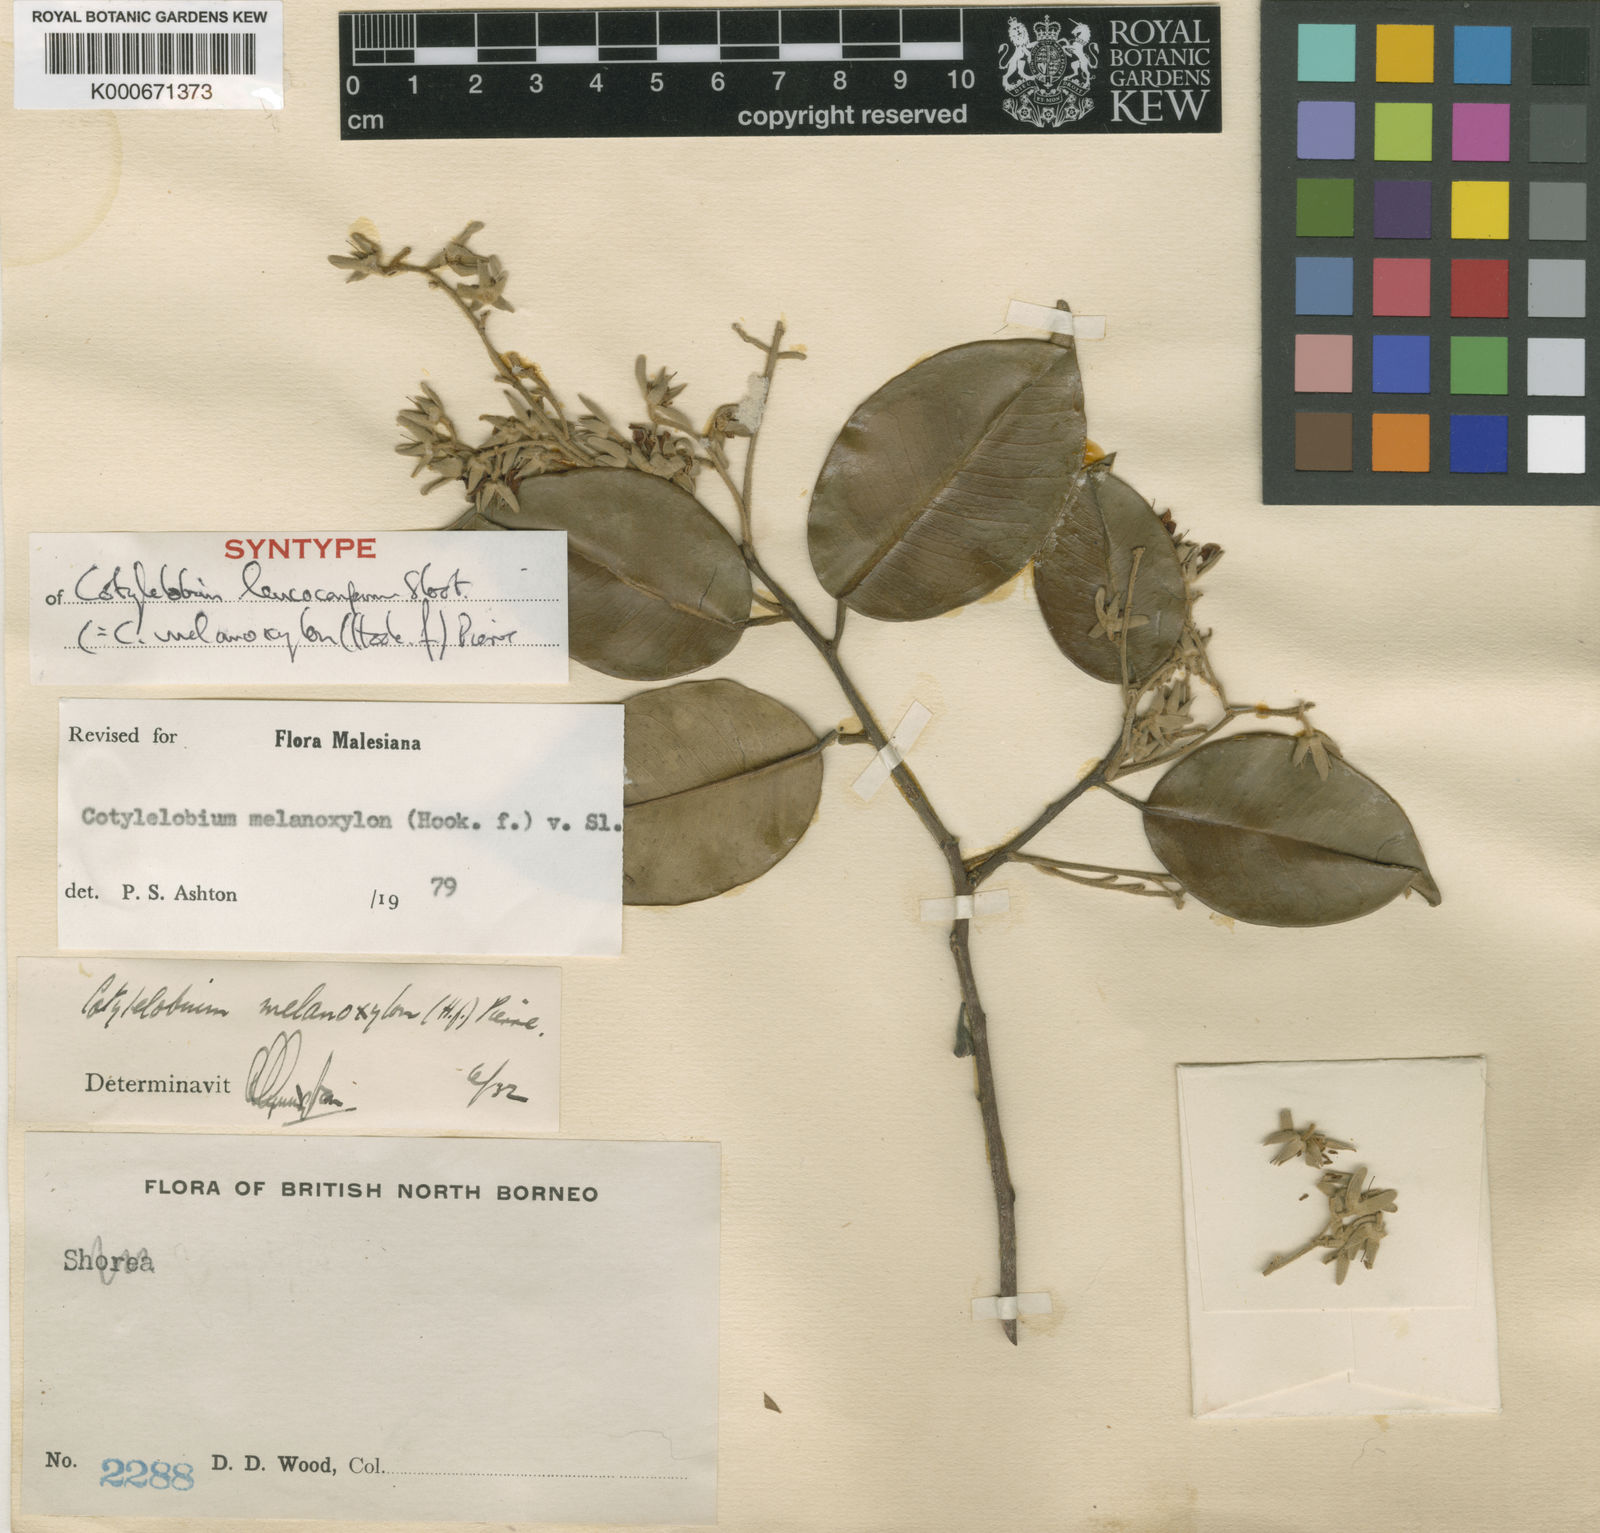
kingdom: Plantae
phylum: Tracheophyta
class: Magnoliopsida
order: Malvales
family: Dipterocarpaceae
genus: Cotylelobium
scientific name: Cotylelobium melanoxylon
